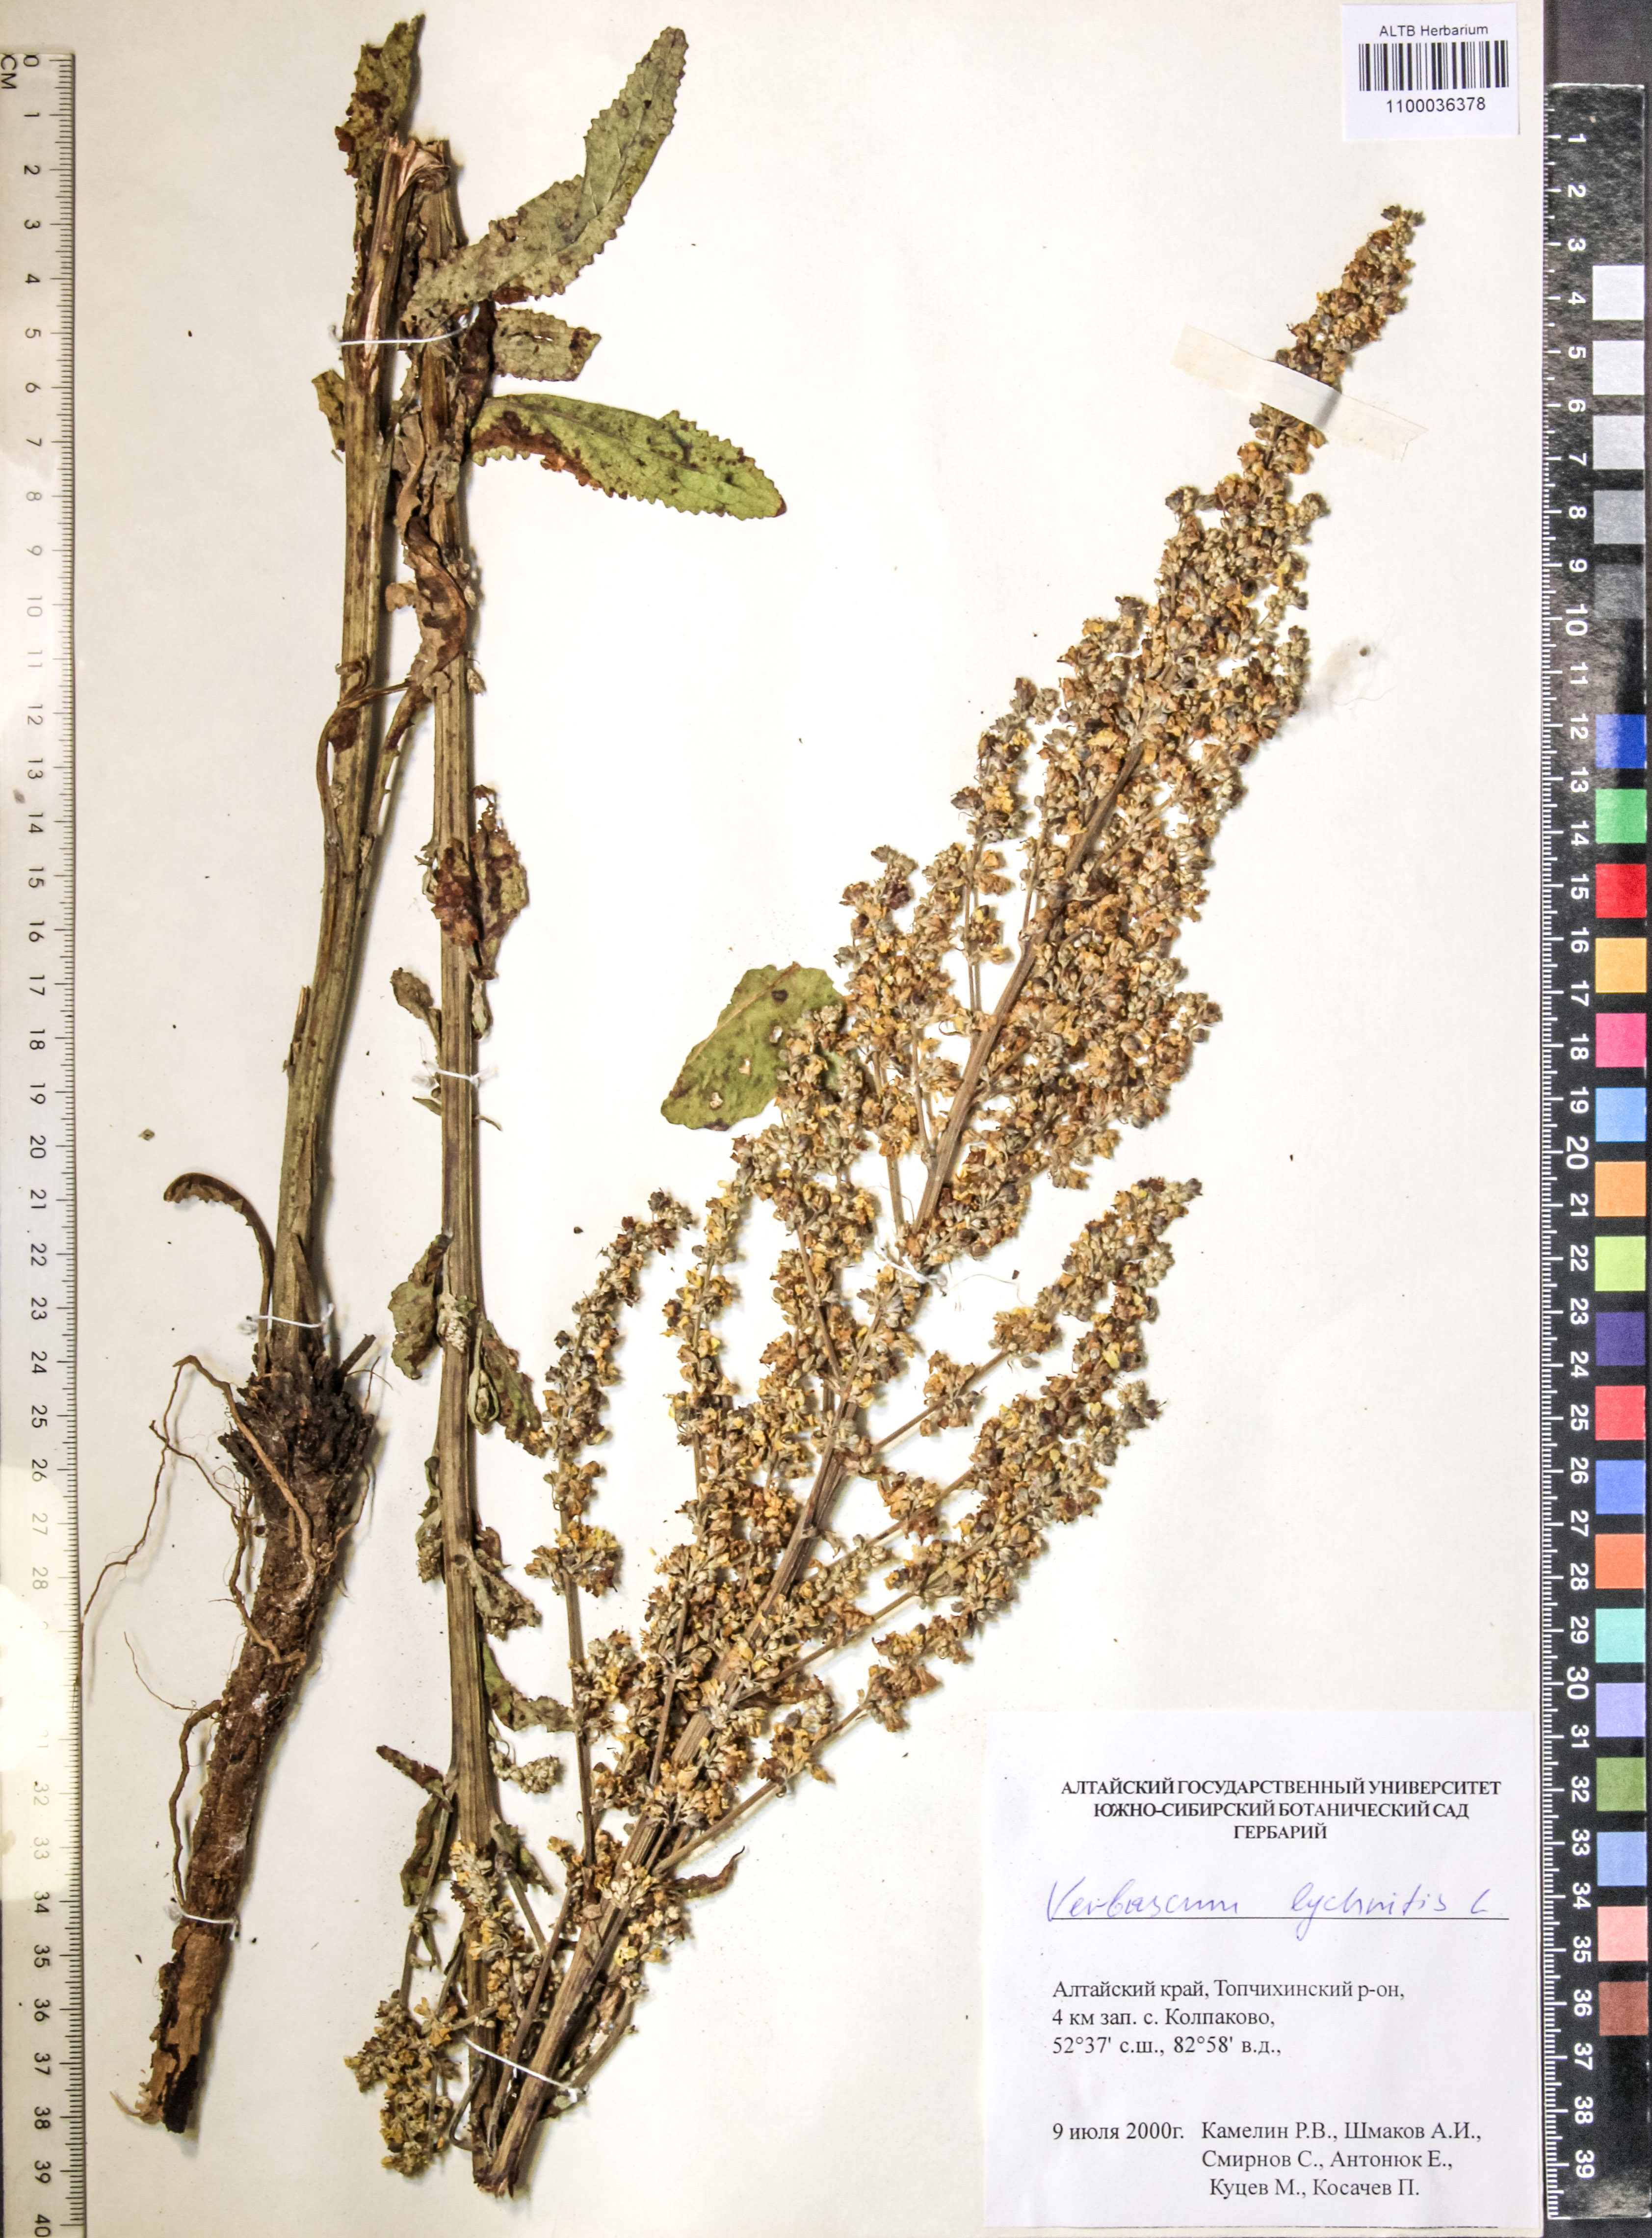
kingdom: Plantae
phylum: Tracheophyta
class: Magnoliopsida
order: Lamiales
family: Scrophulariaceae
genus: Verbascum
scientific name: Verbascum lychnitis
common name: White mullein
